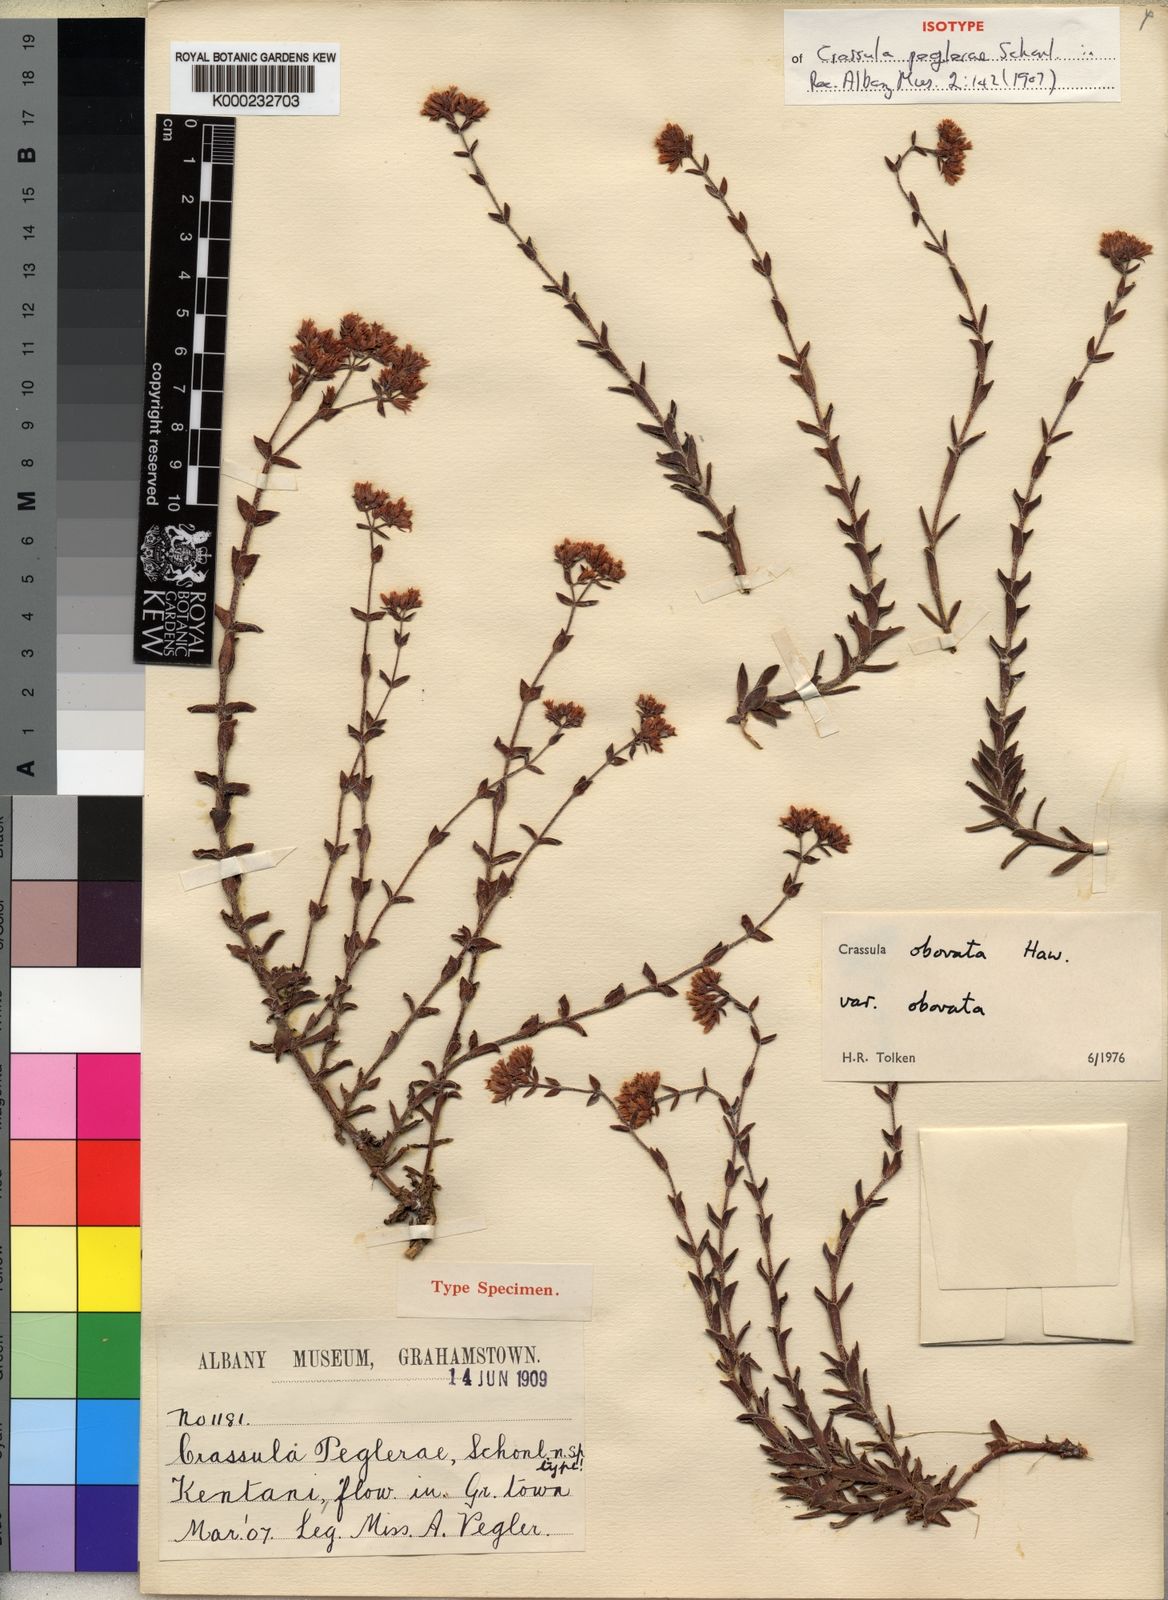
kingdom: Plantae
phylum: Tracheophyta
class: Magnoliopsida
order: Saxifragales
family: Crassulaceae
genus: Crassula
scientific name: Crassula obovata
